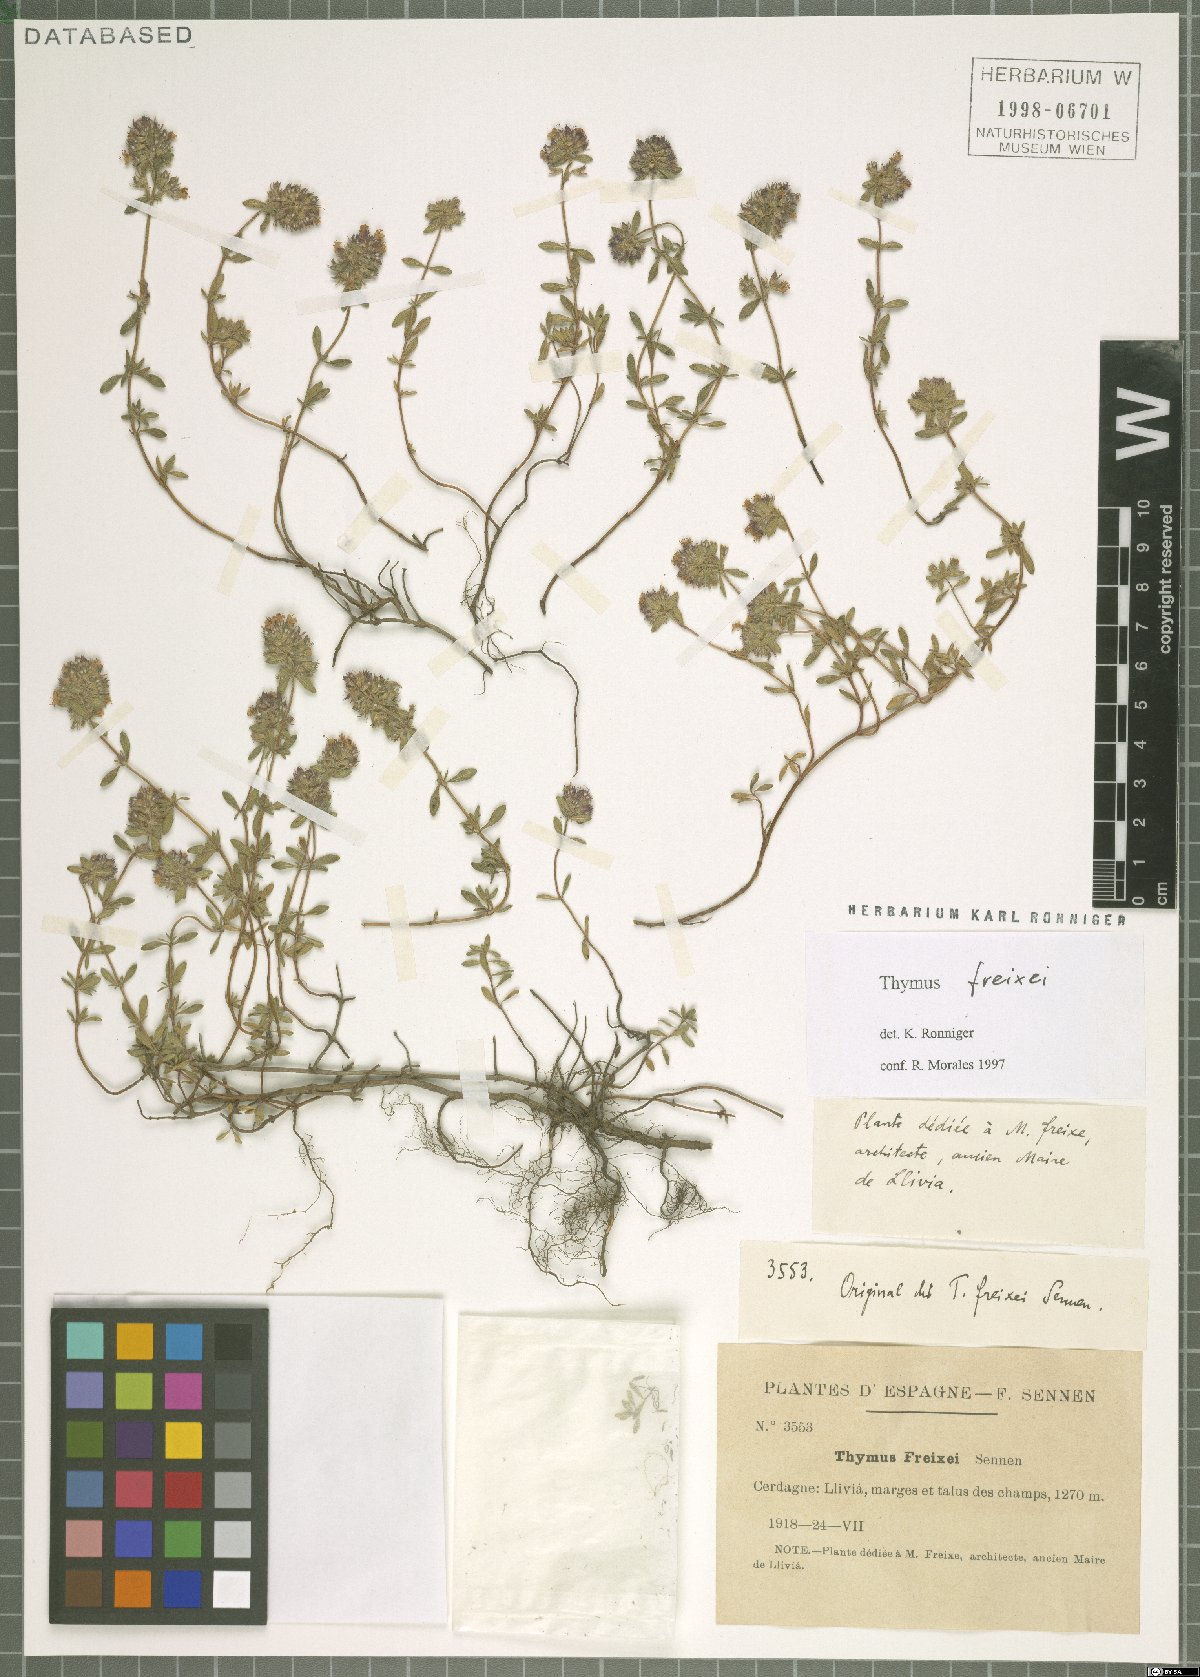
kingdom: Plantae
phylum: Tracheophyta
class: Magnoliopsida
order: Lamiales
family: Lamiaceae
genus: Thymus
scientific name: Thymus pannonicus
